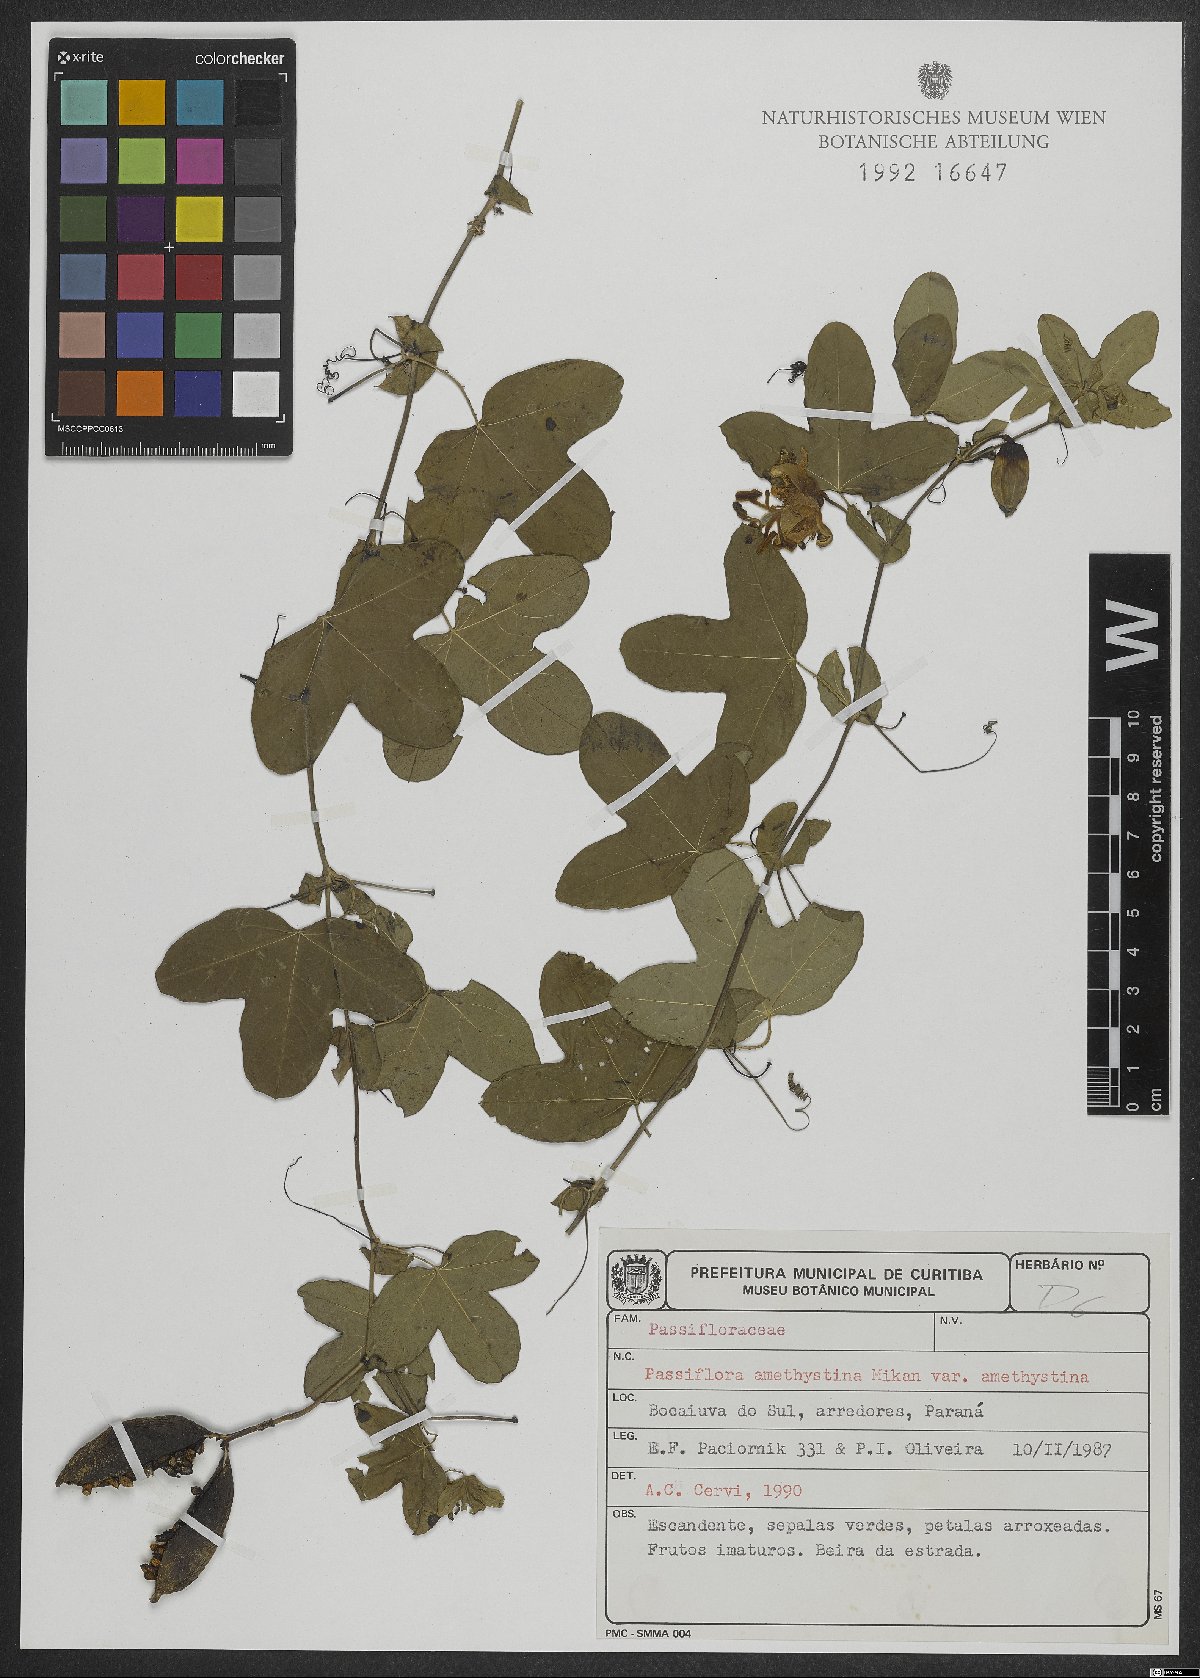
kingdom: Plantae
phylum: Tracheophyta
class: Magnoliopsida
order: Malpighiales
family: Passifloraceae
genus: Passiflora
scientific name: Passiflora amethystina
